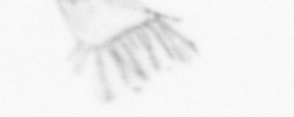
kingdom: Animalia
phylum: Arthropoda
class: Copepoda
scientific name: Copepoda
